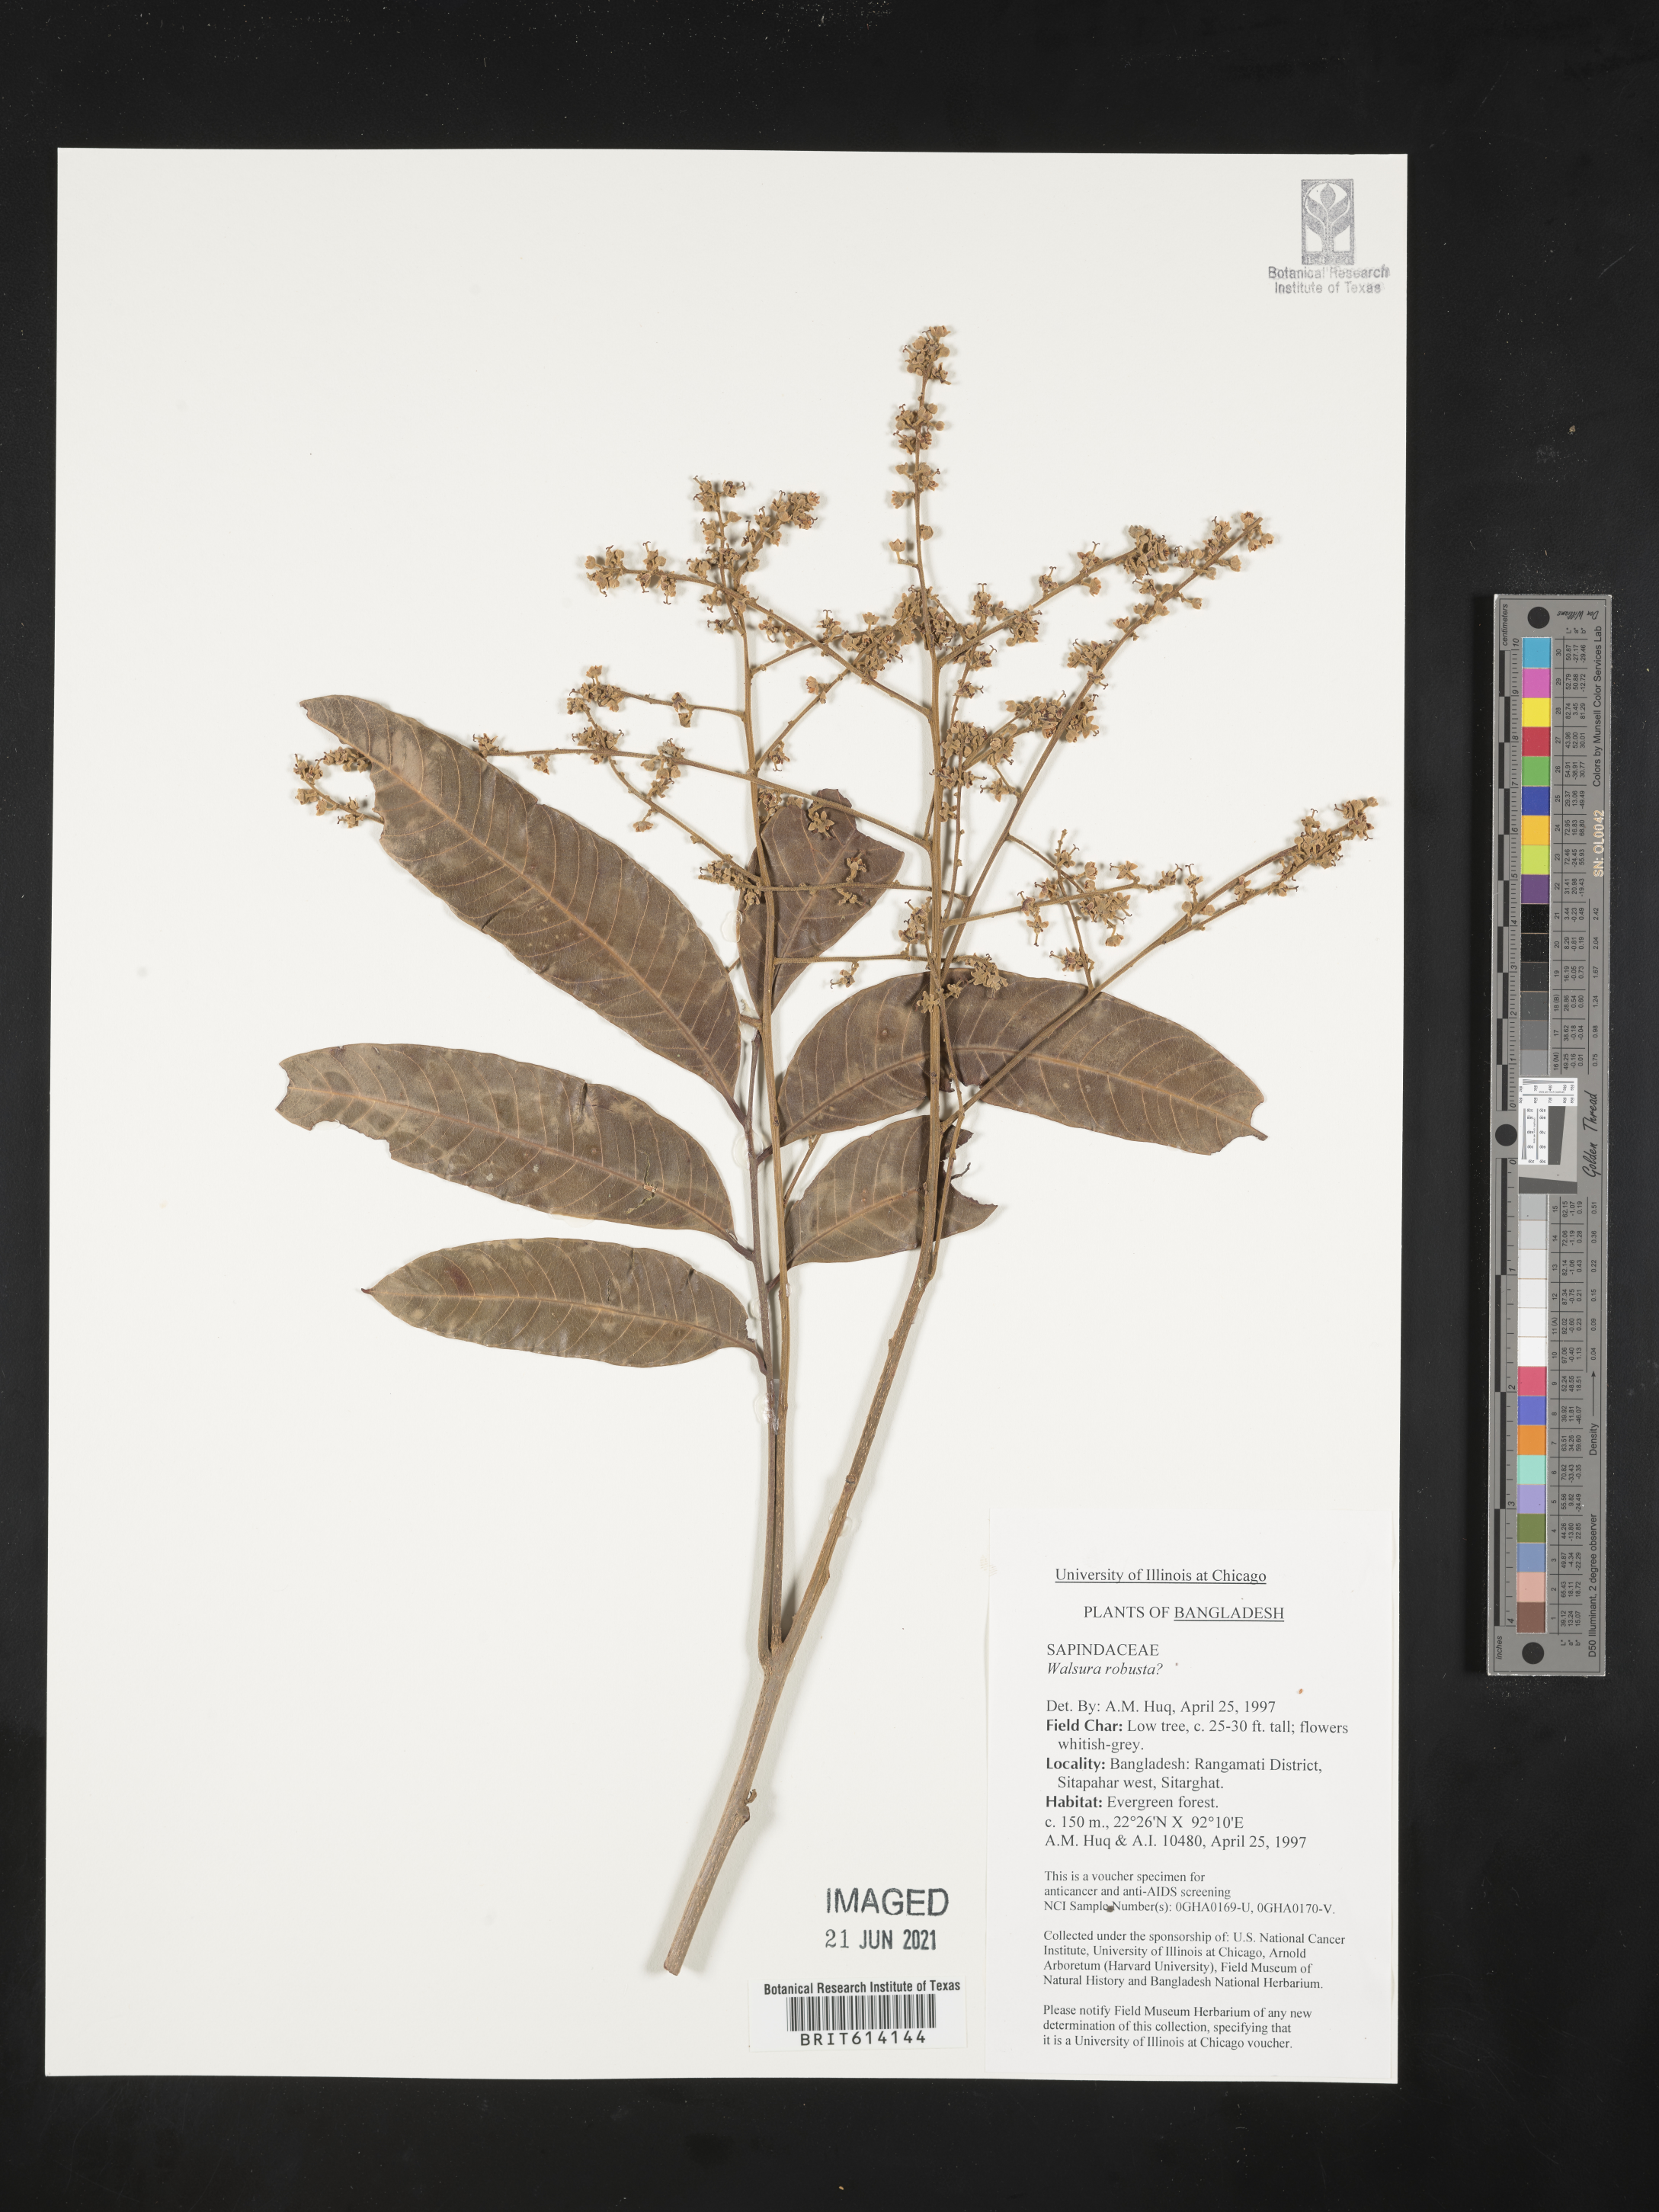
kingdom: Plantae
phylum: Tracheophyta
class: Magnoliopsida
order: Sapindales
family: Meliaceae
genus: Walsura
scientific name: Walsura robusta
